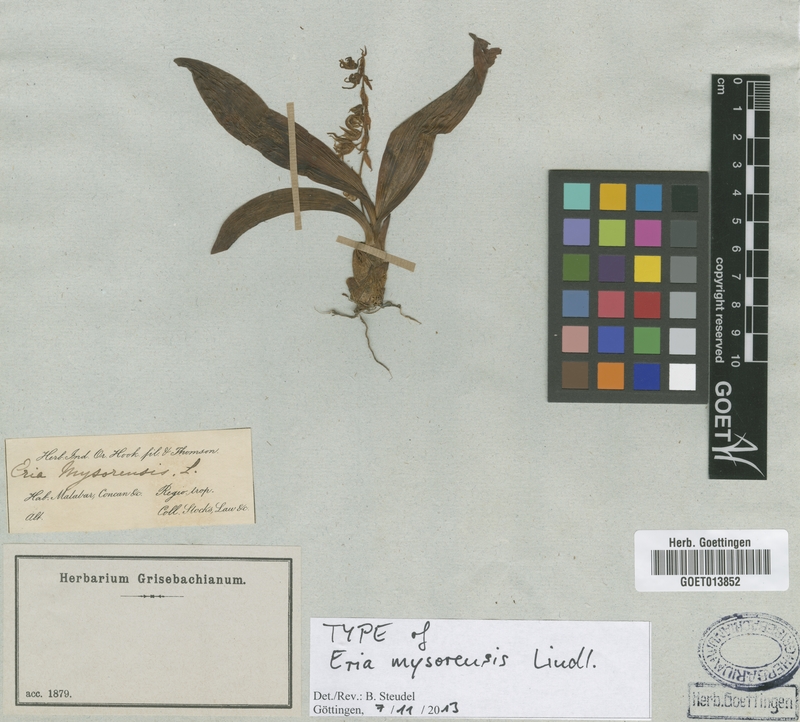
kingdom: Plantae
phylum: Tracheophyta
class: Liliopsida
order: Asparagales
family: Orchidaceae
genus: Pinalia
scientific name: Pinalia mysorensis
